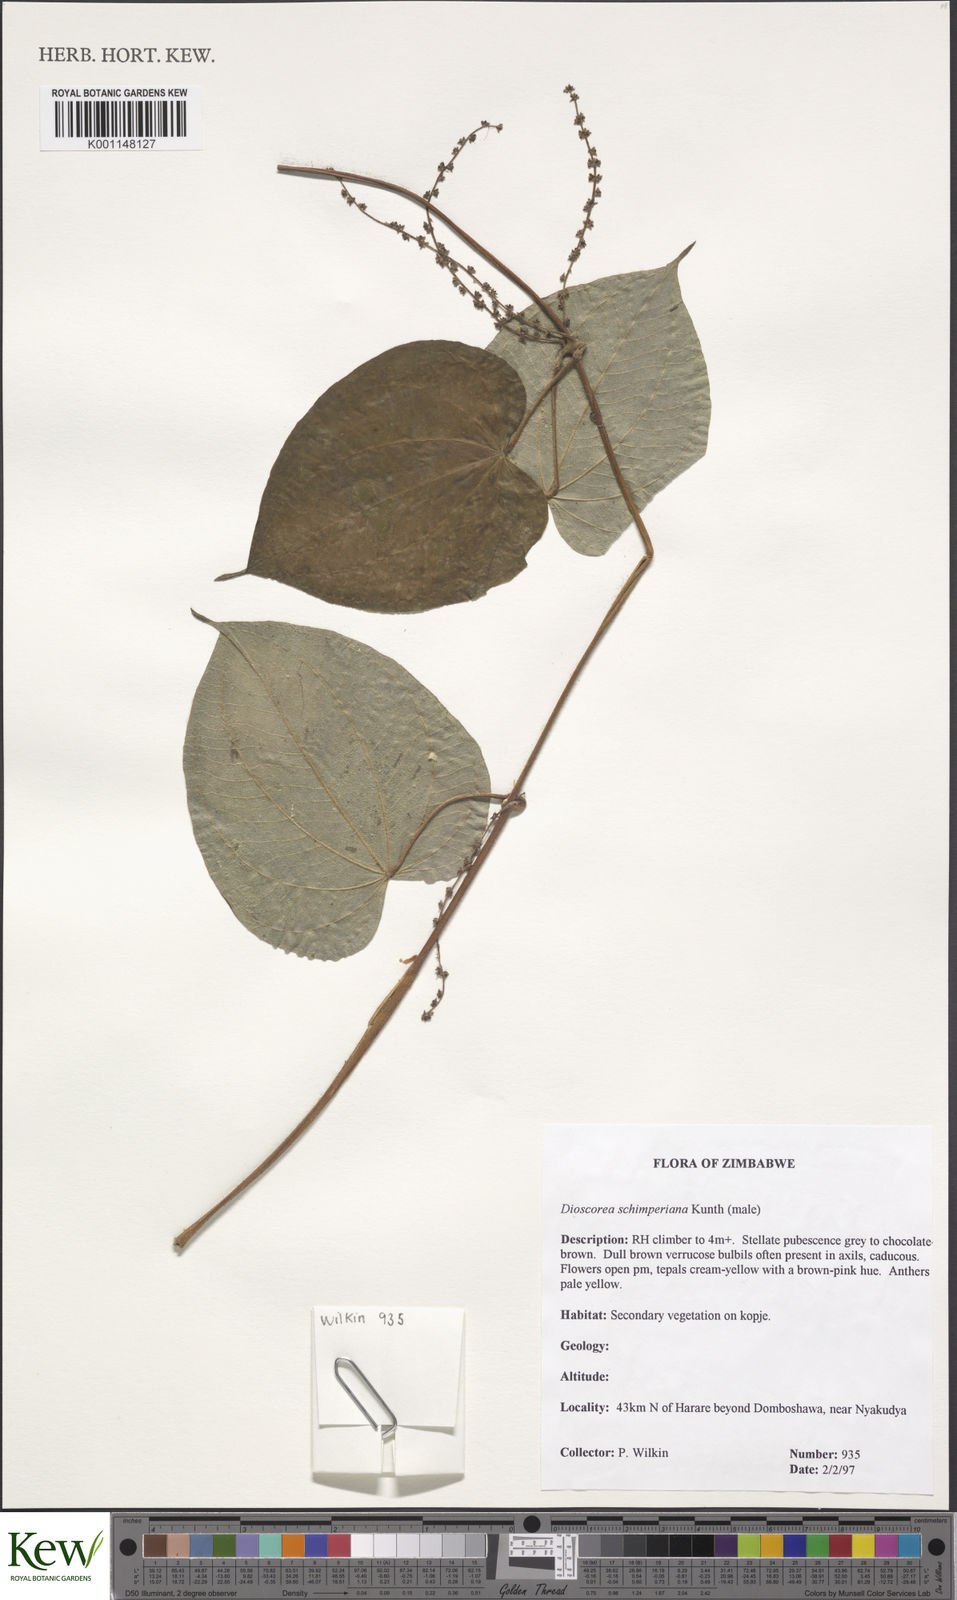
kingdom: Plantae
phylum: Tracheophyta
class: Liliopsida
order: Dioscoreales
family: Dioscoreaceae
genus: Dioscorea
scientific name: Dioscorea schimperiana
